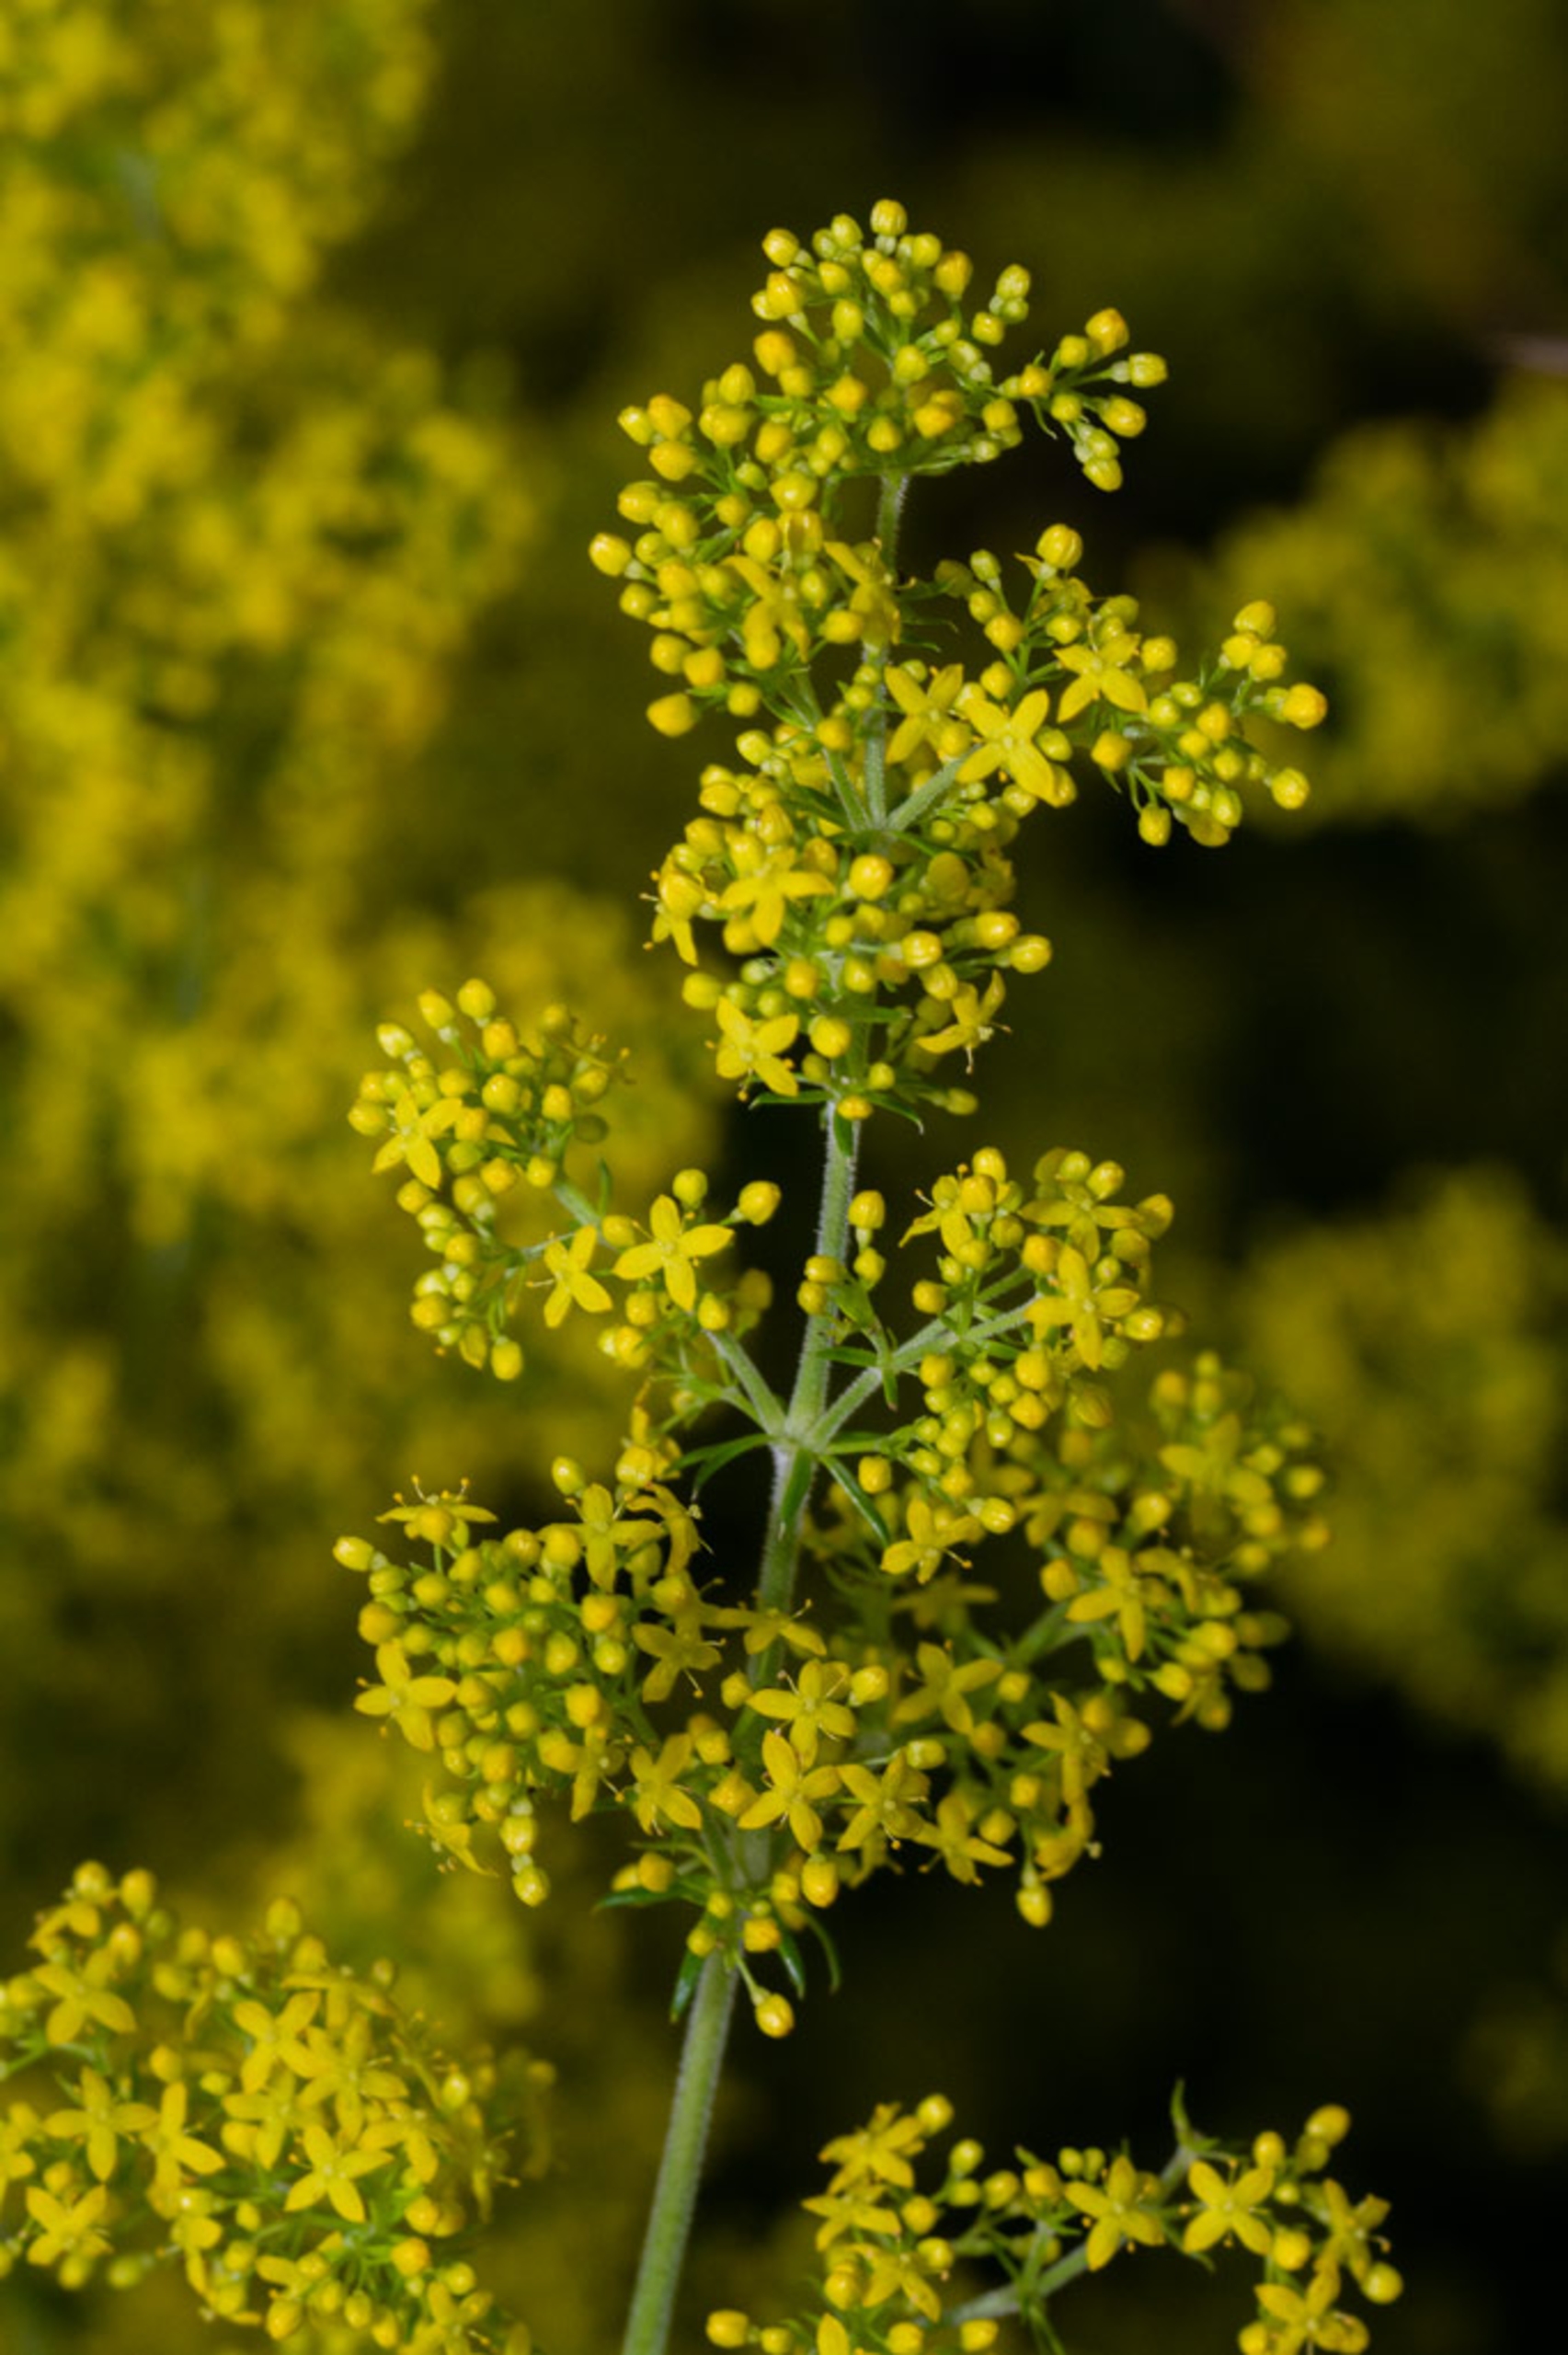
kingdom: Plantae
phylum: Tracheophyta
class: Magnoliopsida
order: Gentianales
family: Rubiaceae
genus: Galium
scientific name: Galium verum
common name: Gul snerre
